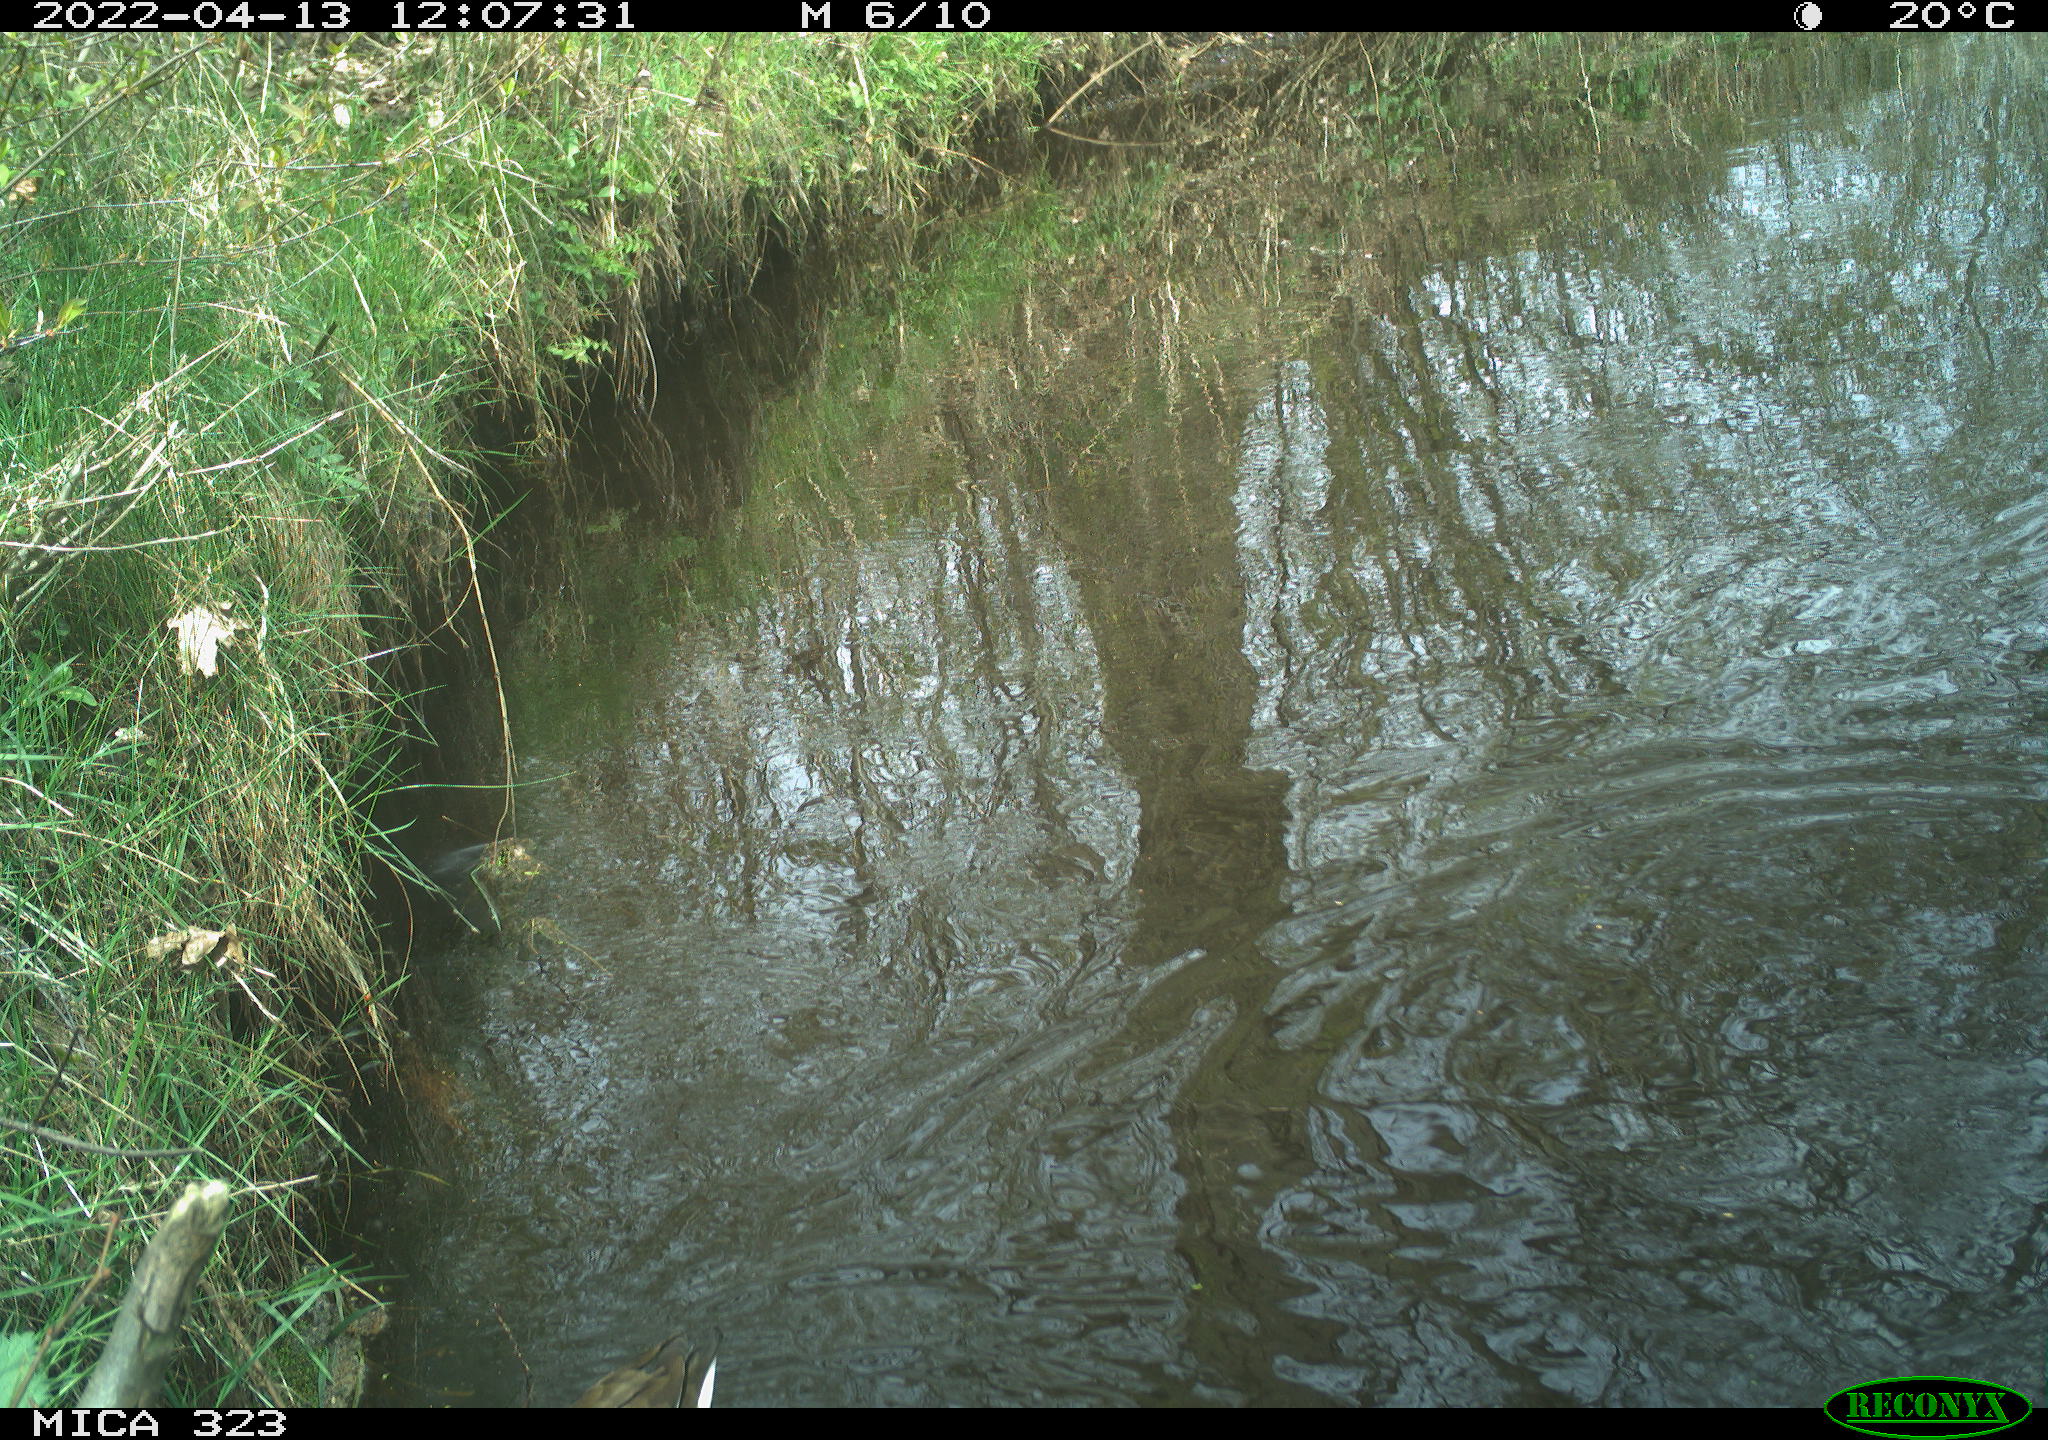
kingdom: Animalia
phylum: Chordata
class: Aves
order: Gruiformes
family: Rallidae
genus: Gallinula
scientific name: Gallinula chloropus
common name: Common moorhen
